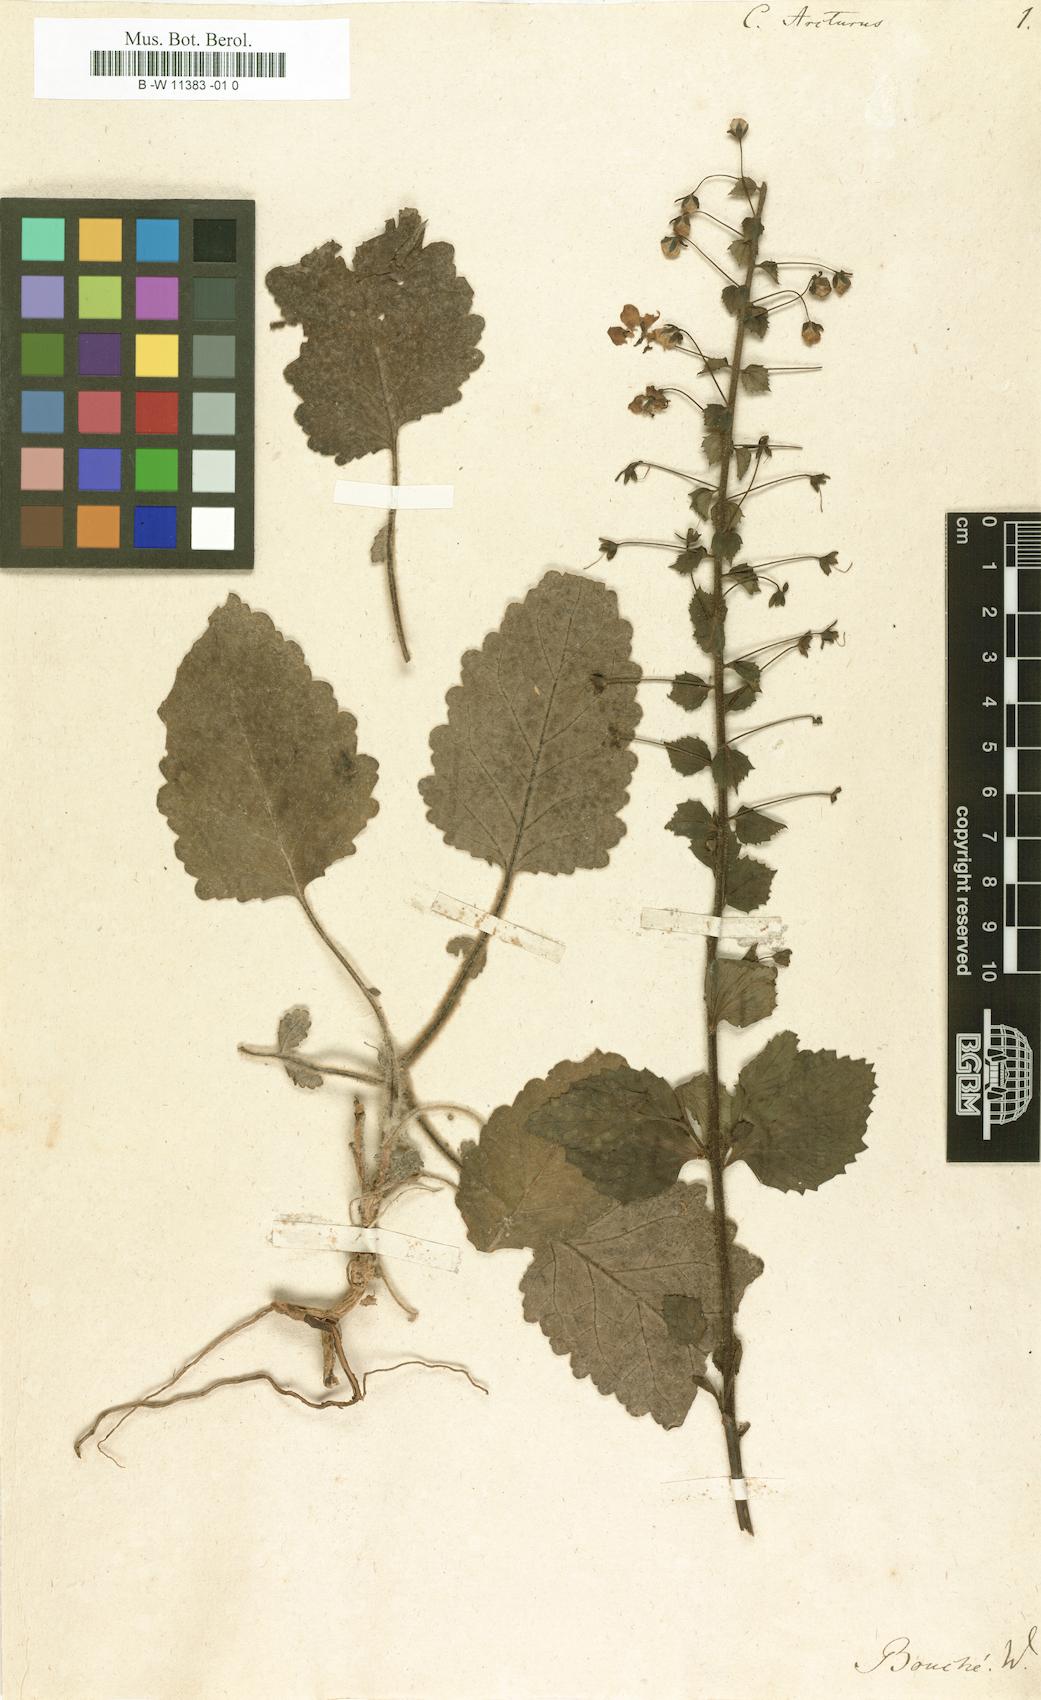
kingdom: Plantae
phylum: Tracheophyta
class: Magnoliopsida
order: Lamiales
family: Scrophulariaceae
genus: Verbascum
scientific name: Verbascum arcturus
